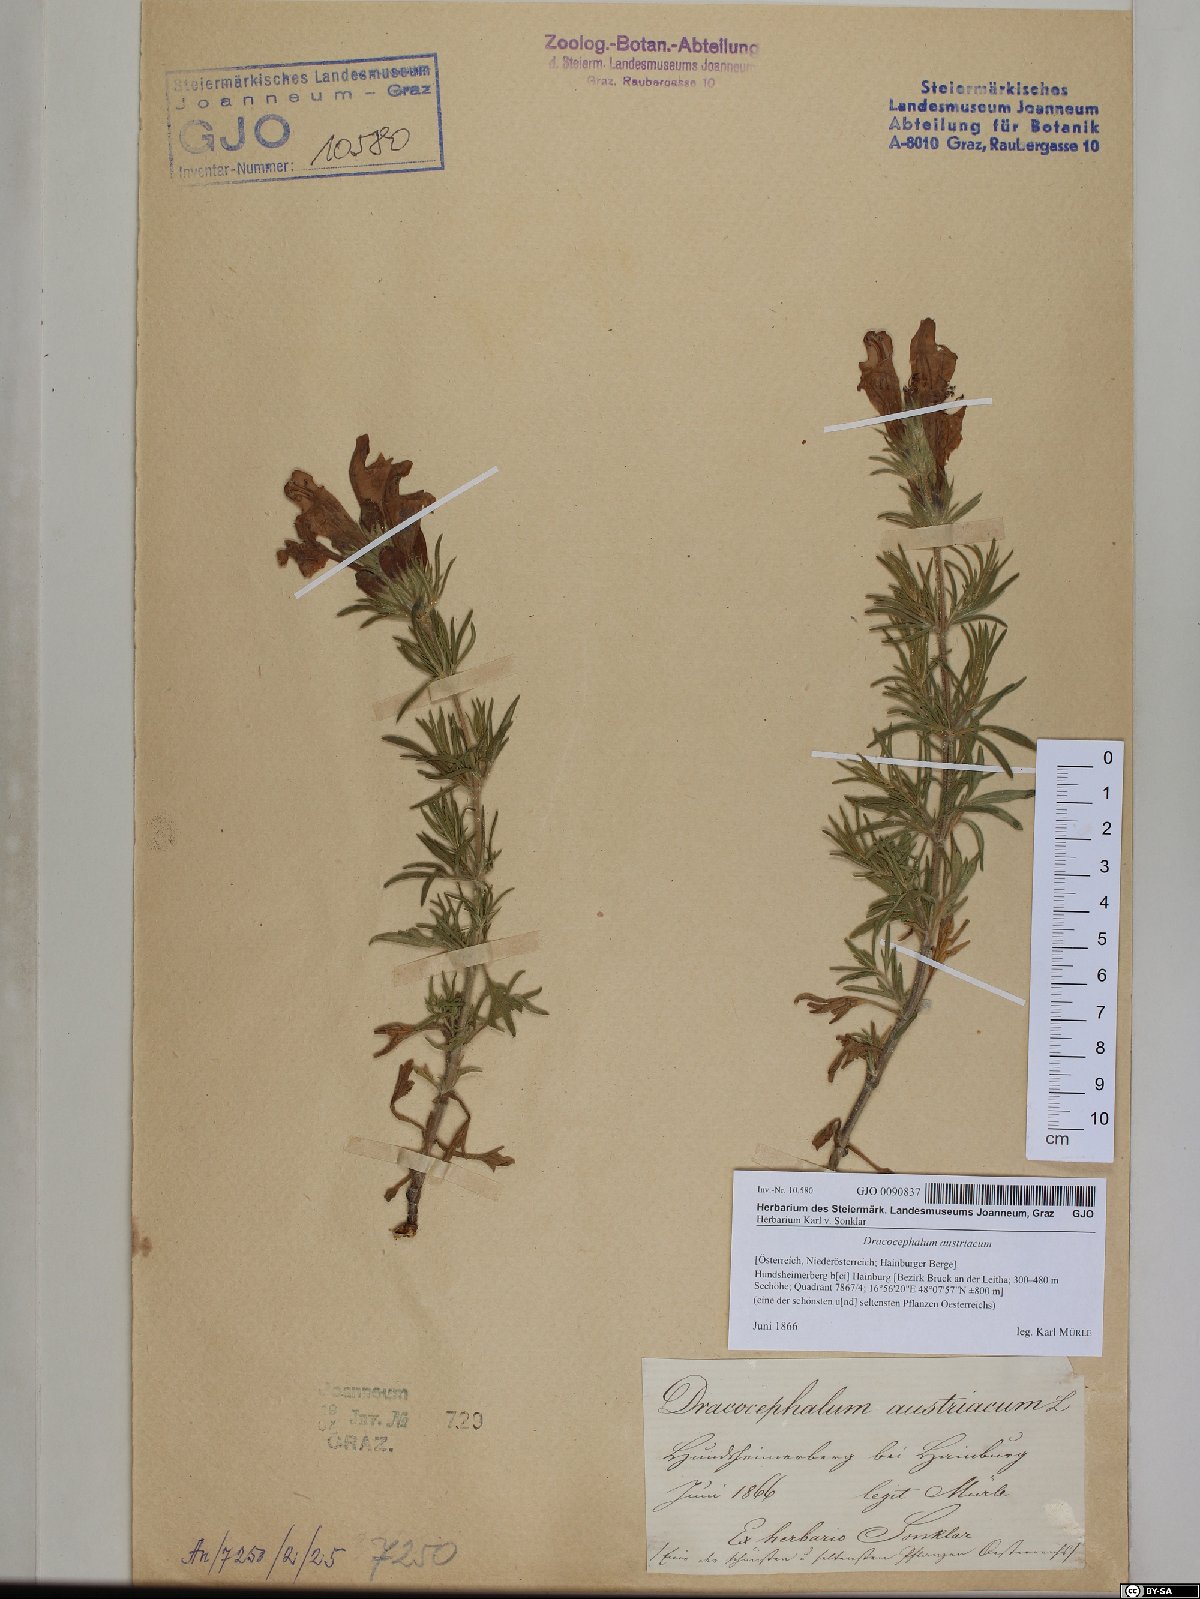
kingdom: Plantae
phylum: Tracheophyta
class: Magnoliopsida
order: Lamiales
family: Lamiaceae
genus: Dracocephalum
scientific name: Dracocephalum austriacum
